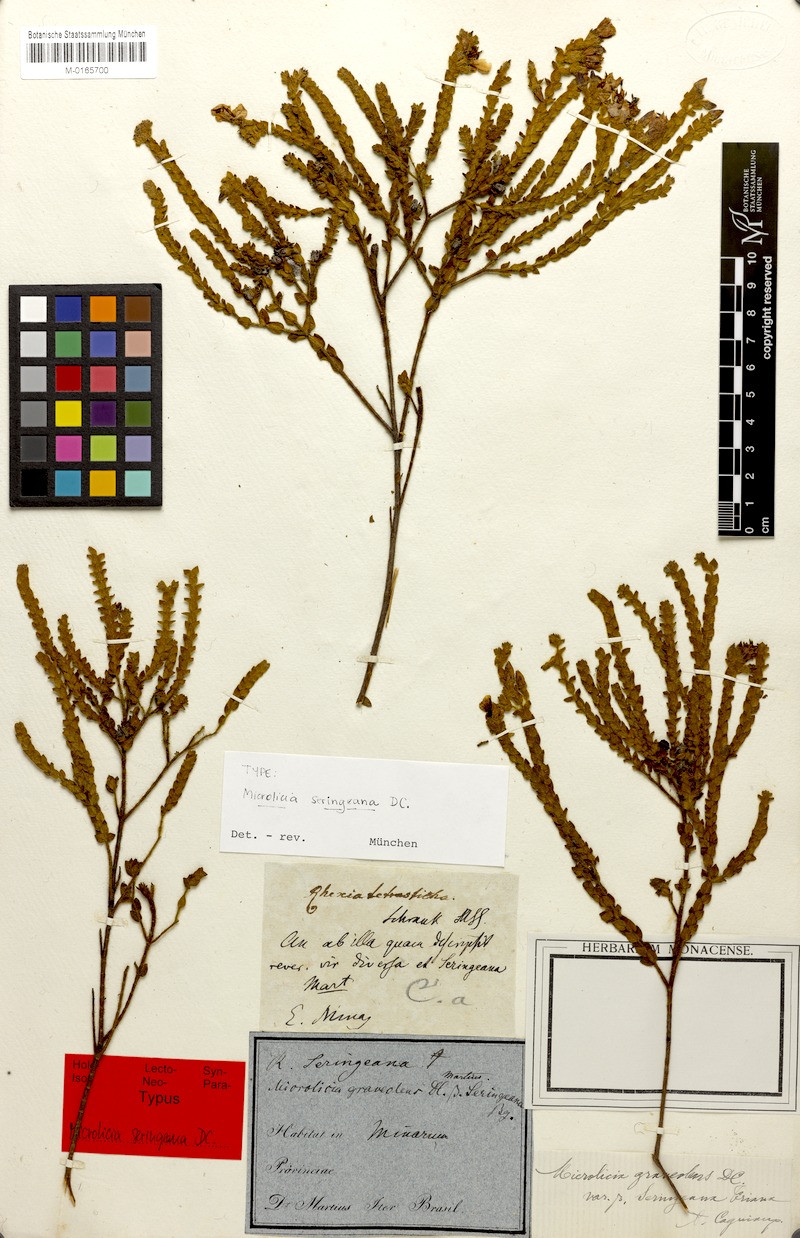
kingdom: Plantae
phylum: Tracheophyta
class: Magnoliopsida
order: Myrtales
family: Melastomataceae
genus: Microlicia
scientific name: Microlicia graveolens
